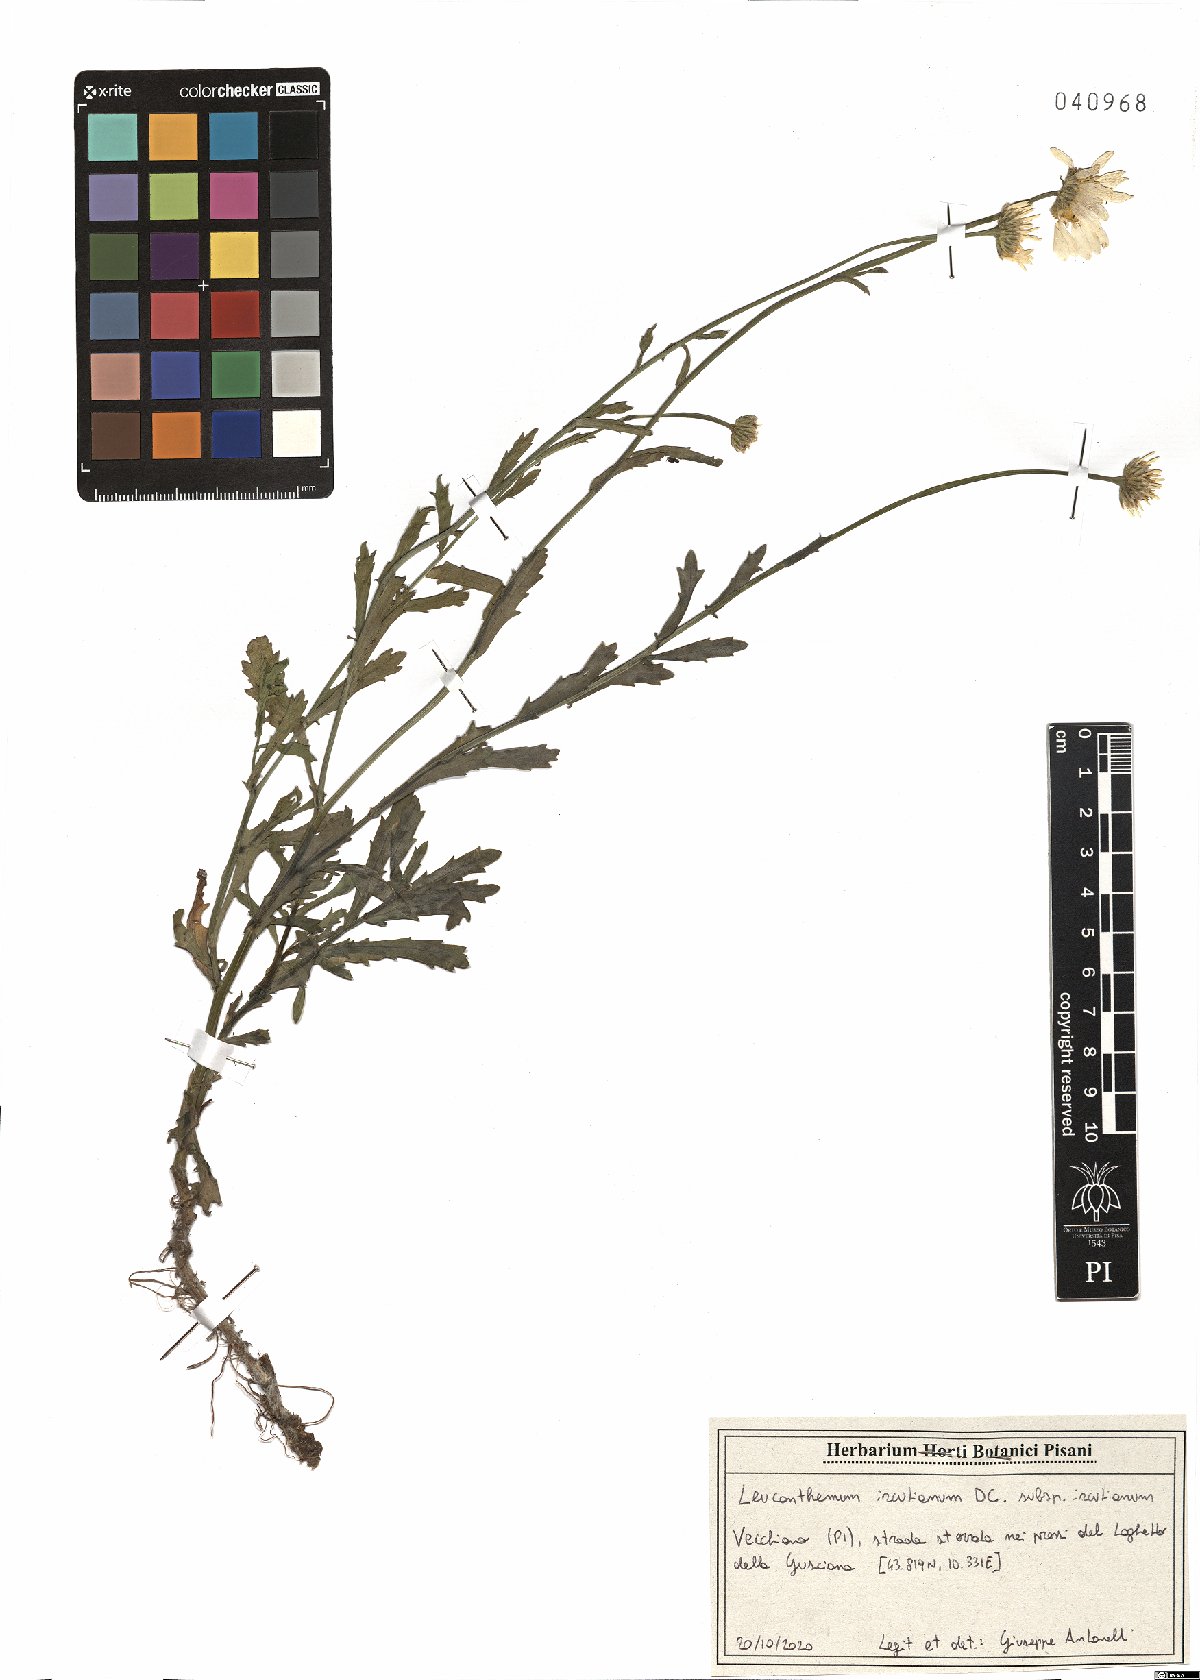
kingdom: Plantae
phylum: Tracheophyta
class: Magnoliopsida
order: Asterales
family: Asteraceae
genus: Leucanthemum
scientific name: Leucanthemum ircutianum
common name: Daisy
